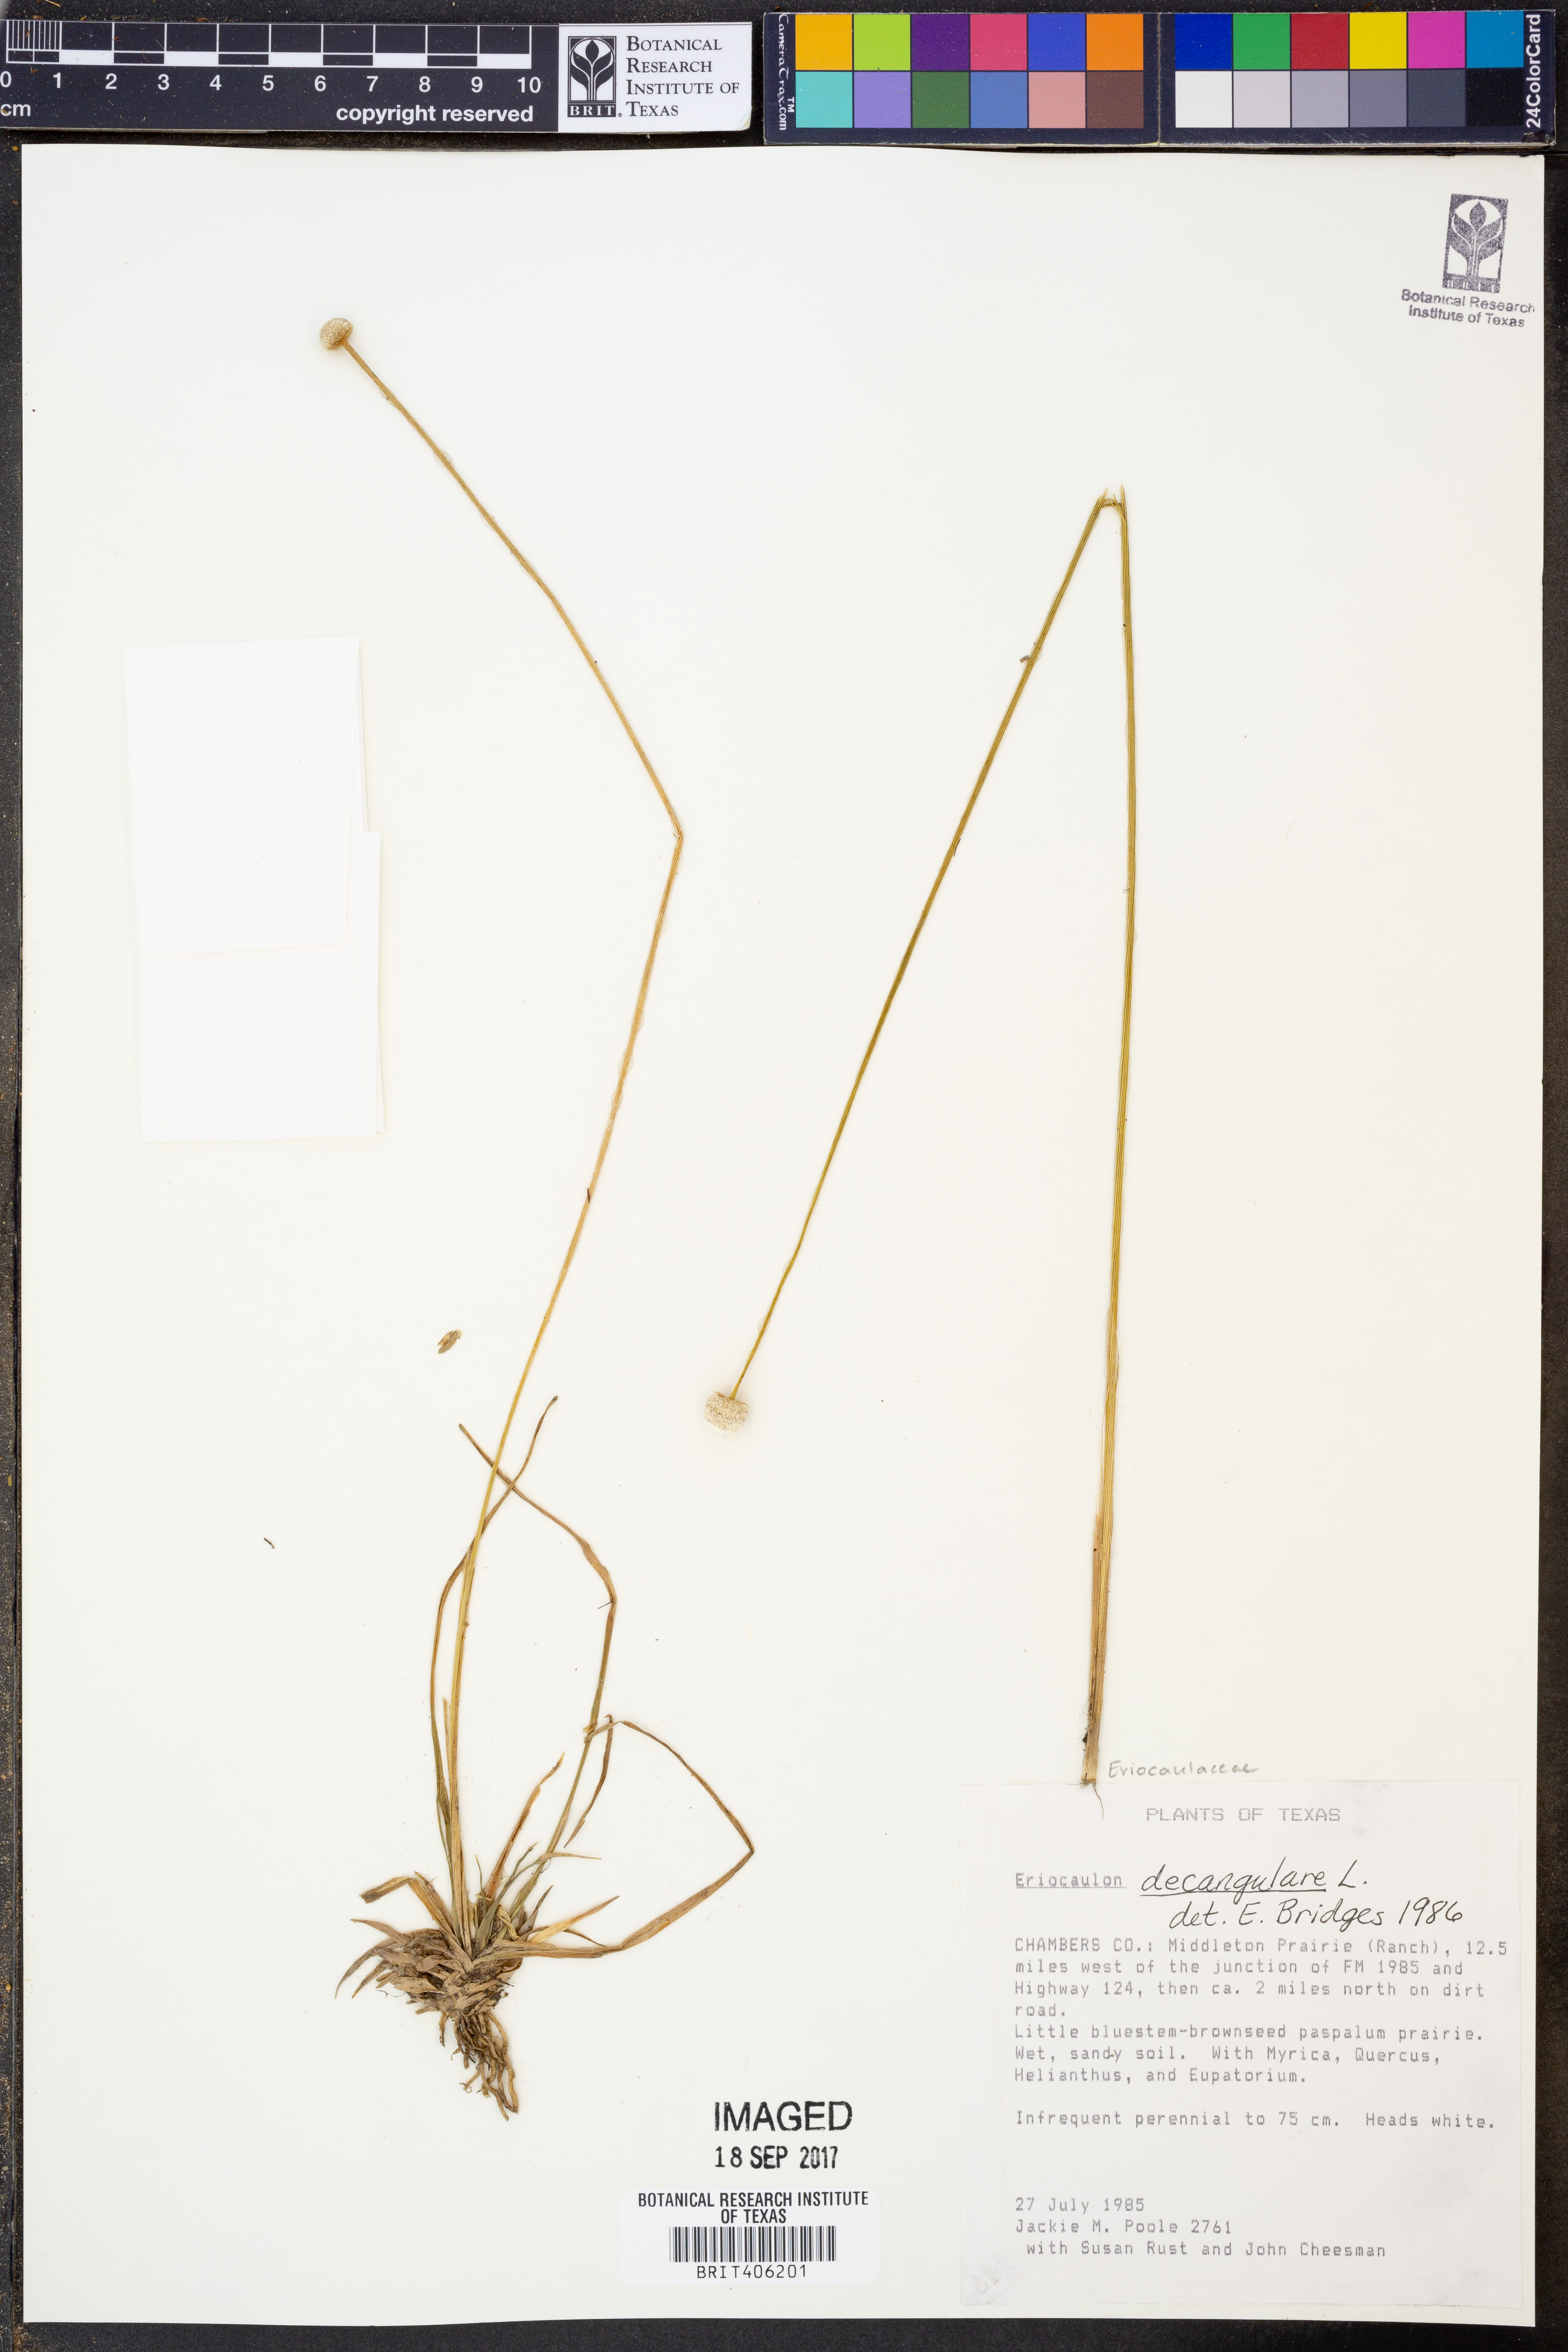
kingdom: Plantae
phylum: Tracheophyta
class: Liliopsida
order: Poales
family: Eriocaulaceae
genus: Eriocaulon
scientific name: Eriocaulon decangulare
